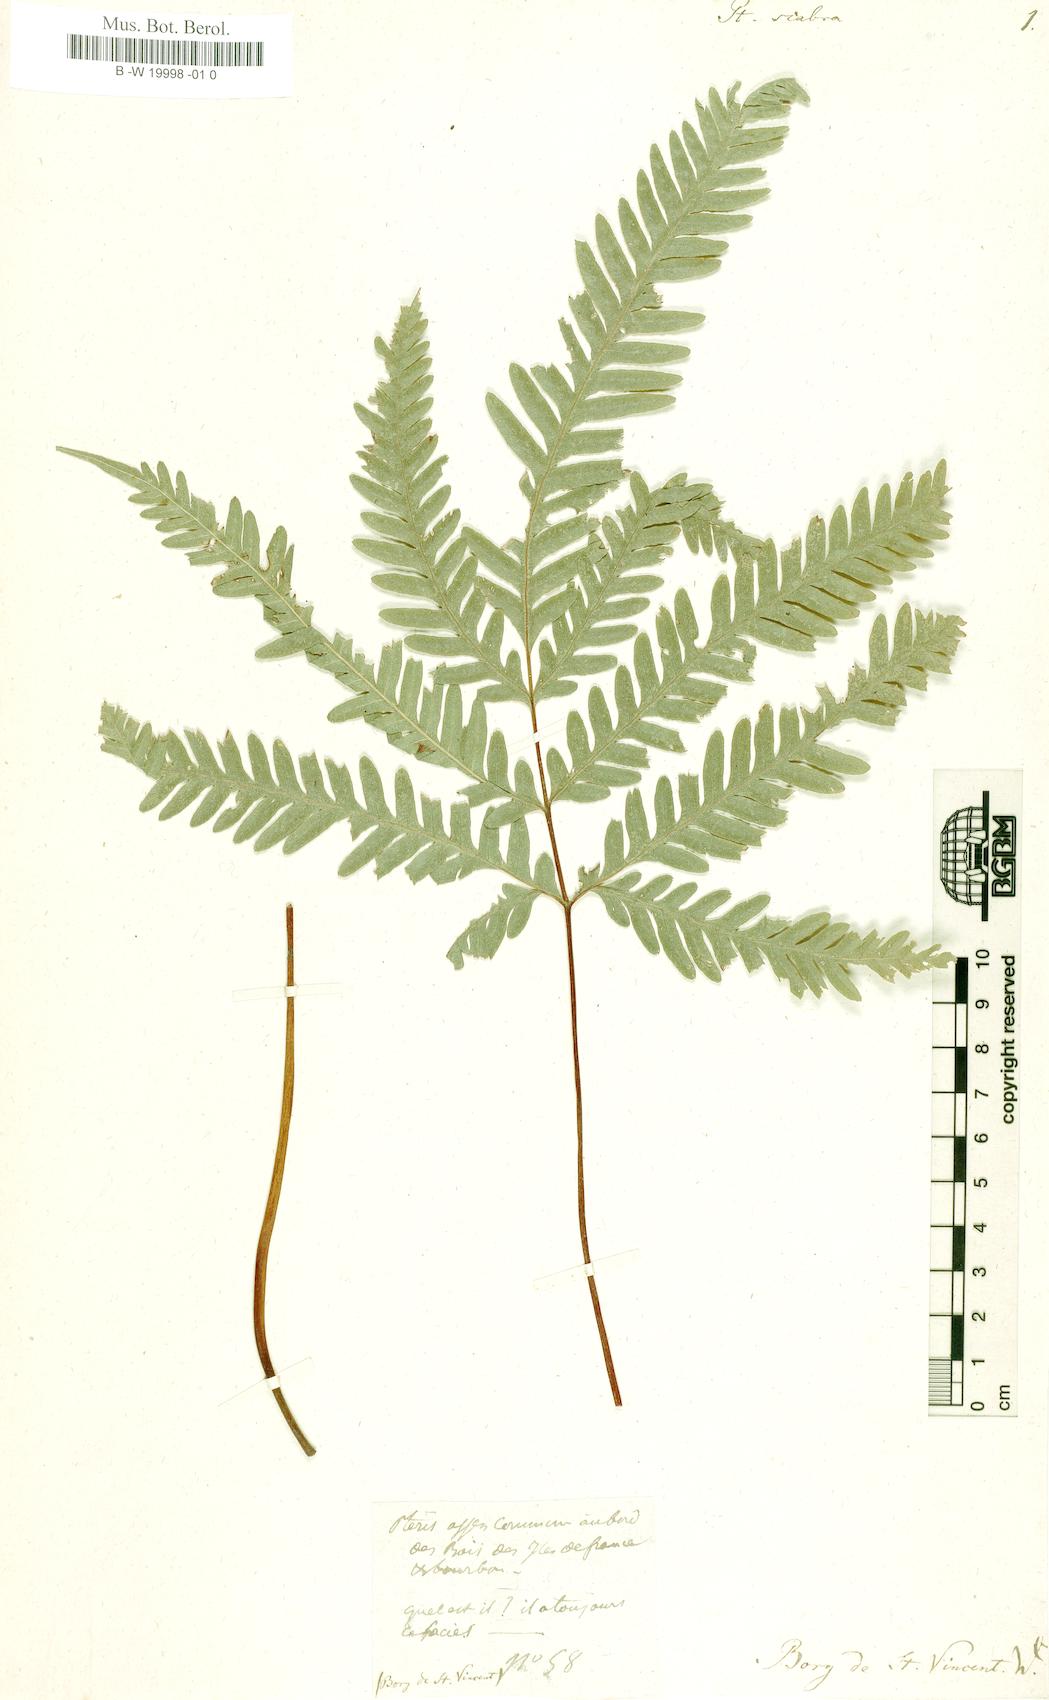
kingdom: Plantae
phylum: Tracheophyta
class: Polypodiopsida
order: Polypodiales
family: Pteridaceae
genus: Pteris
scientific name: Pteris scabra
